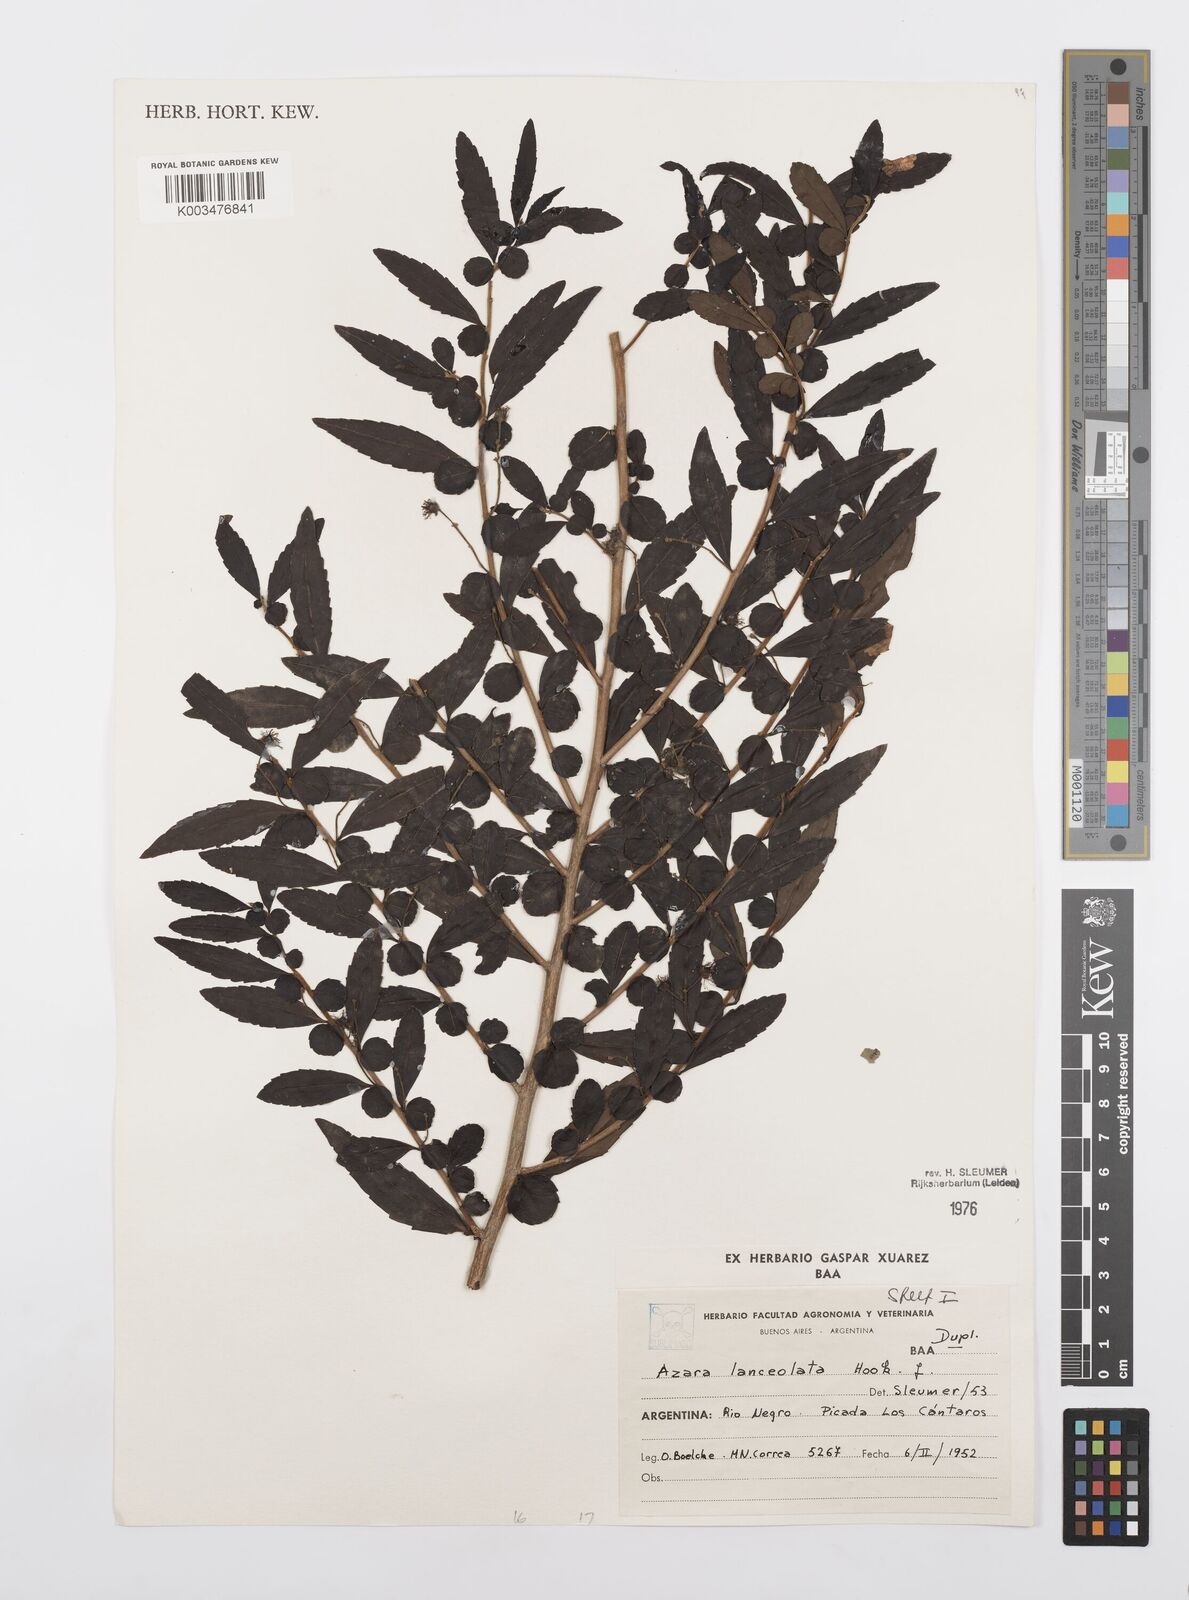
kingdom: Plantae
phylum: Tracheophyta
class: Magnoliopsida
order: Malpighiales
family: Salicaceae
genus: Azara
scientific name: Azara lanceolata
